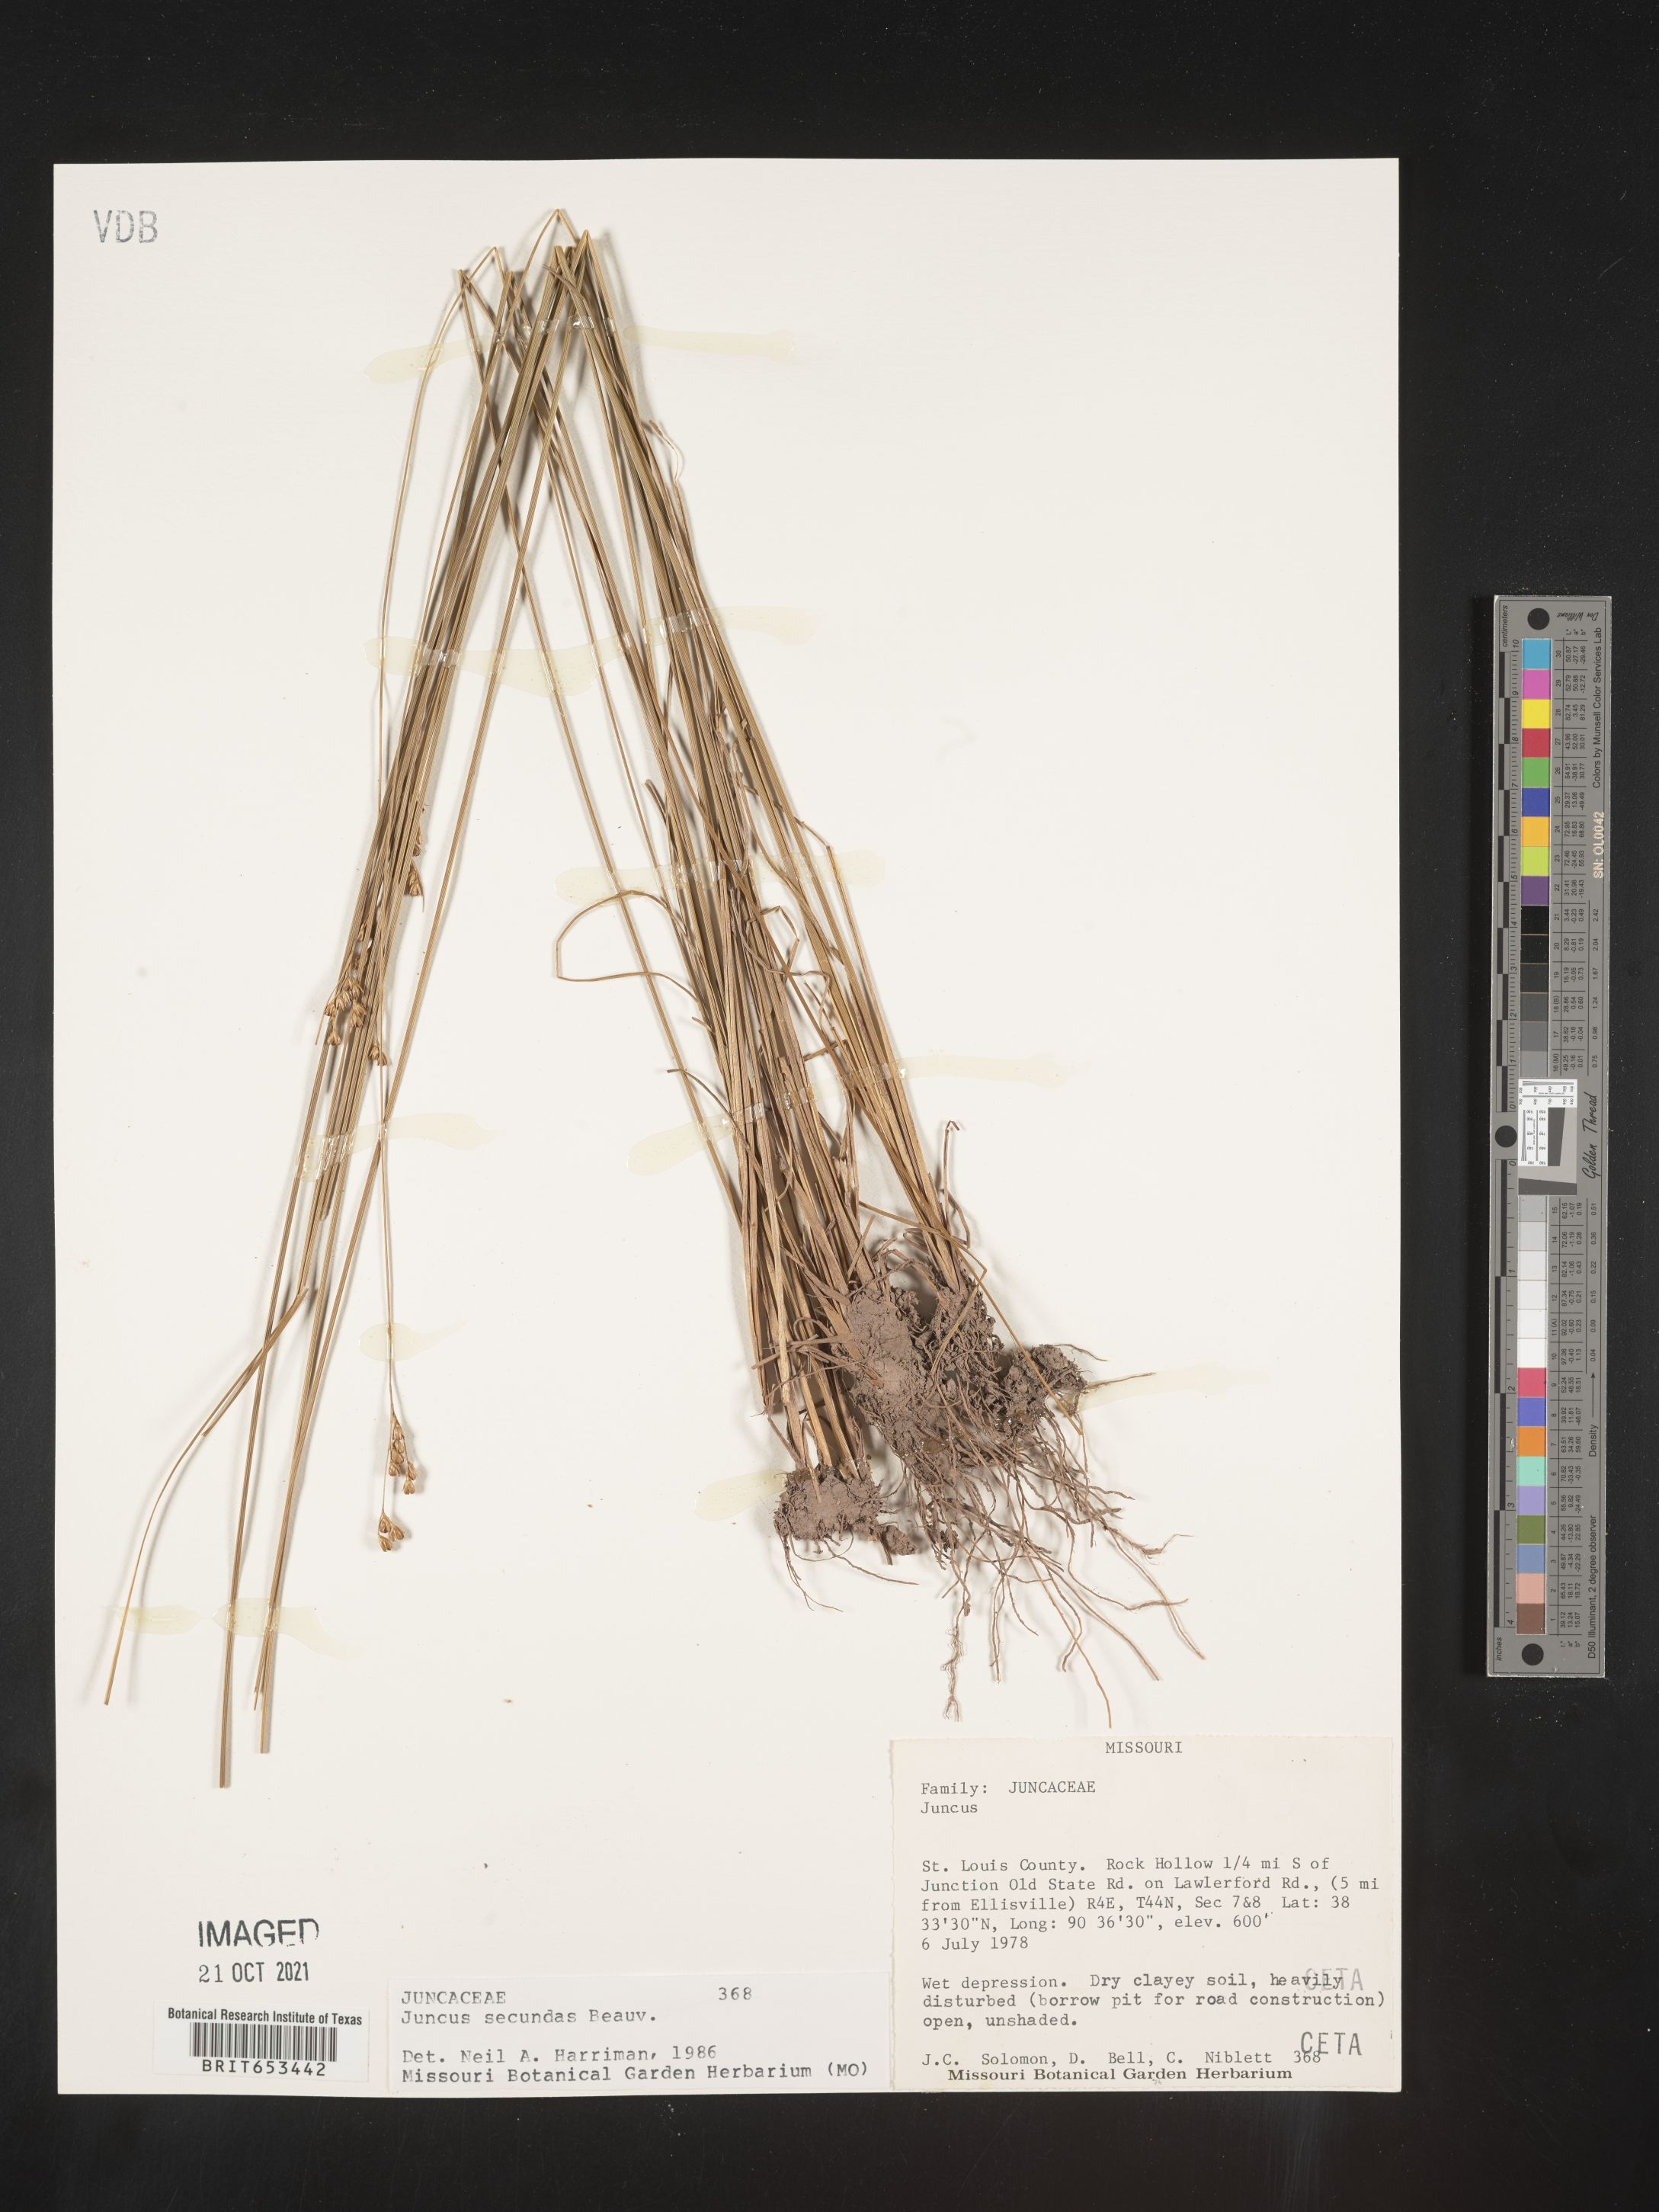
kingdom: Plantae
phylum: Tracheophyta
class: Liliopsida
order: Poales
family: Juncaceae
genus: Juncus
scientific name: Juncus secundus
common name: Lopsided rush
